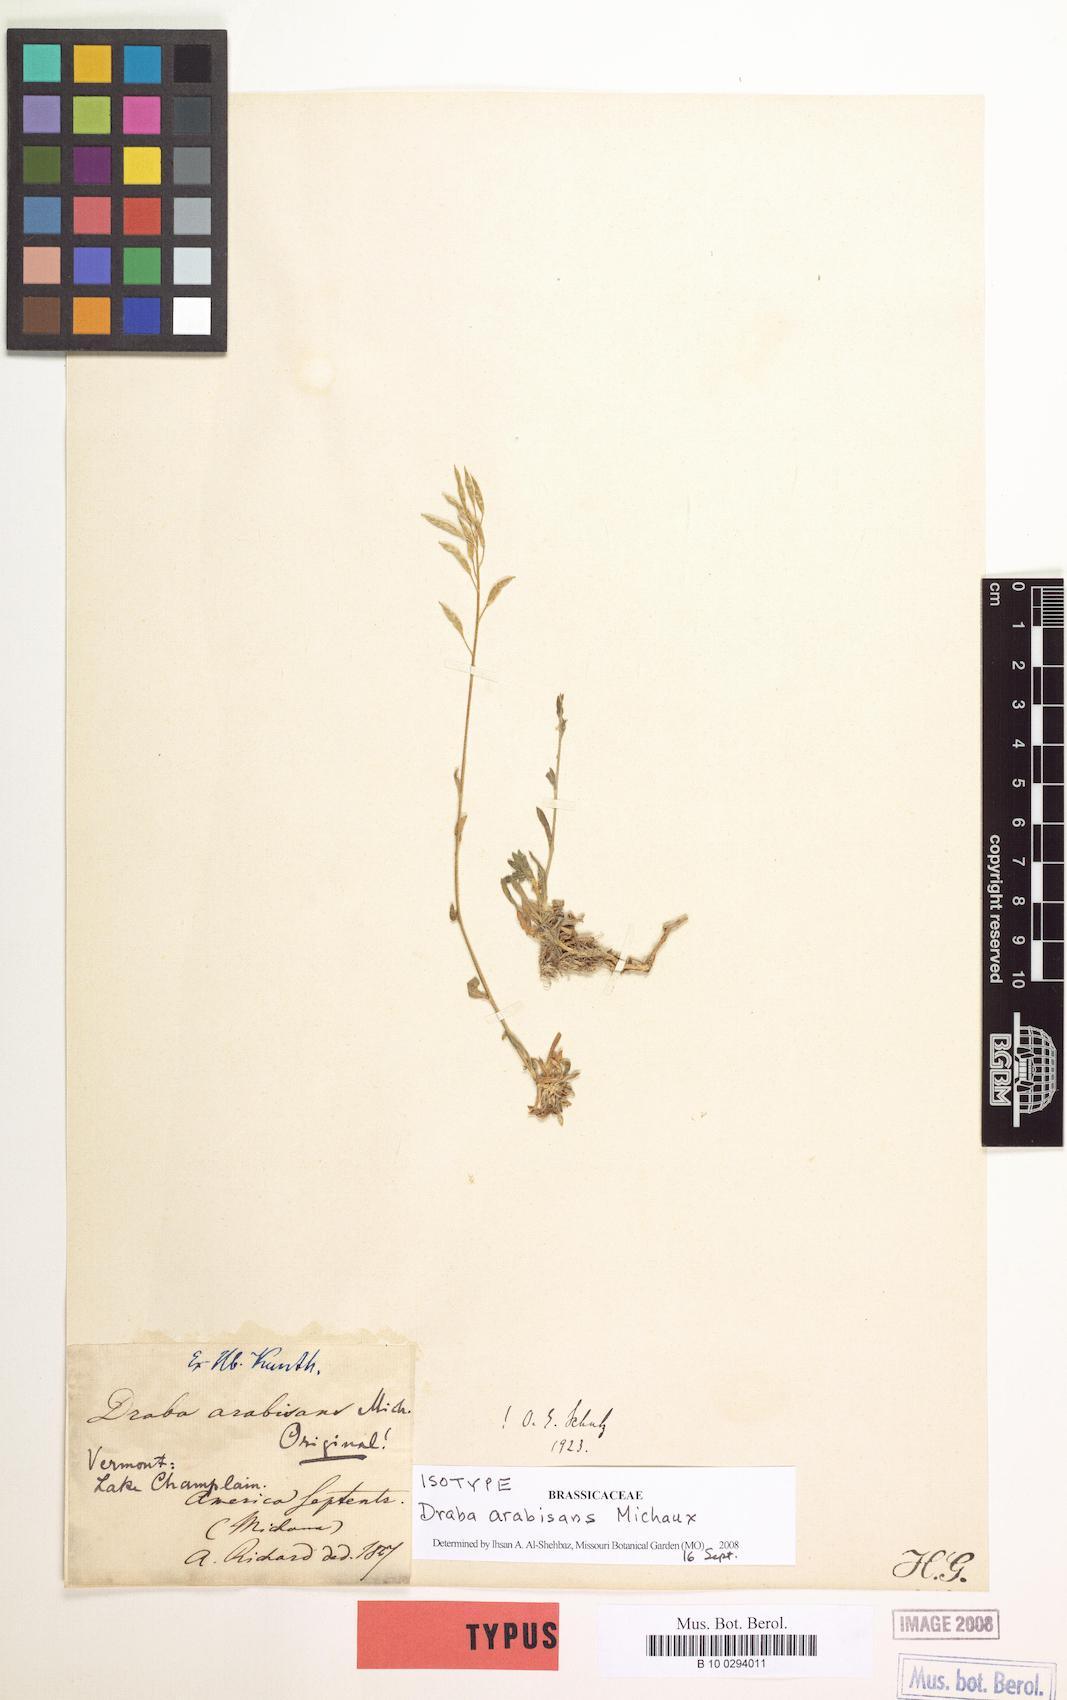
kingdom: Plantae
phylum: Tracheophyta
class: Magnoliopsida
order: Brassicales
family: Brassicaceae
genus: Draba
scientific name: Draba arabisans
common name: Rock draba
